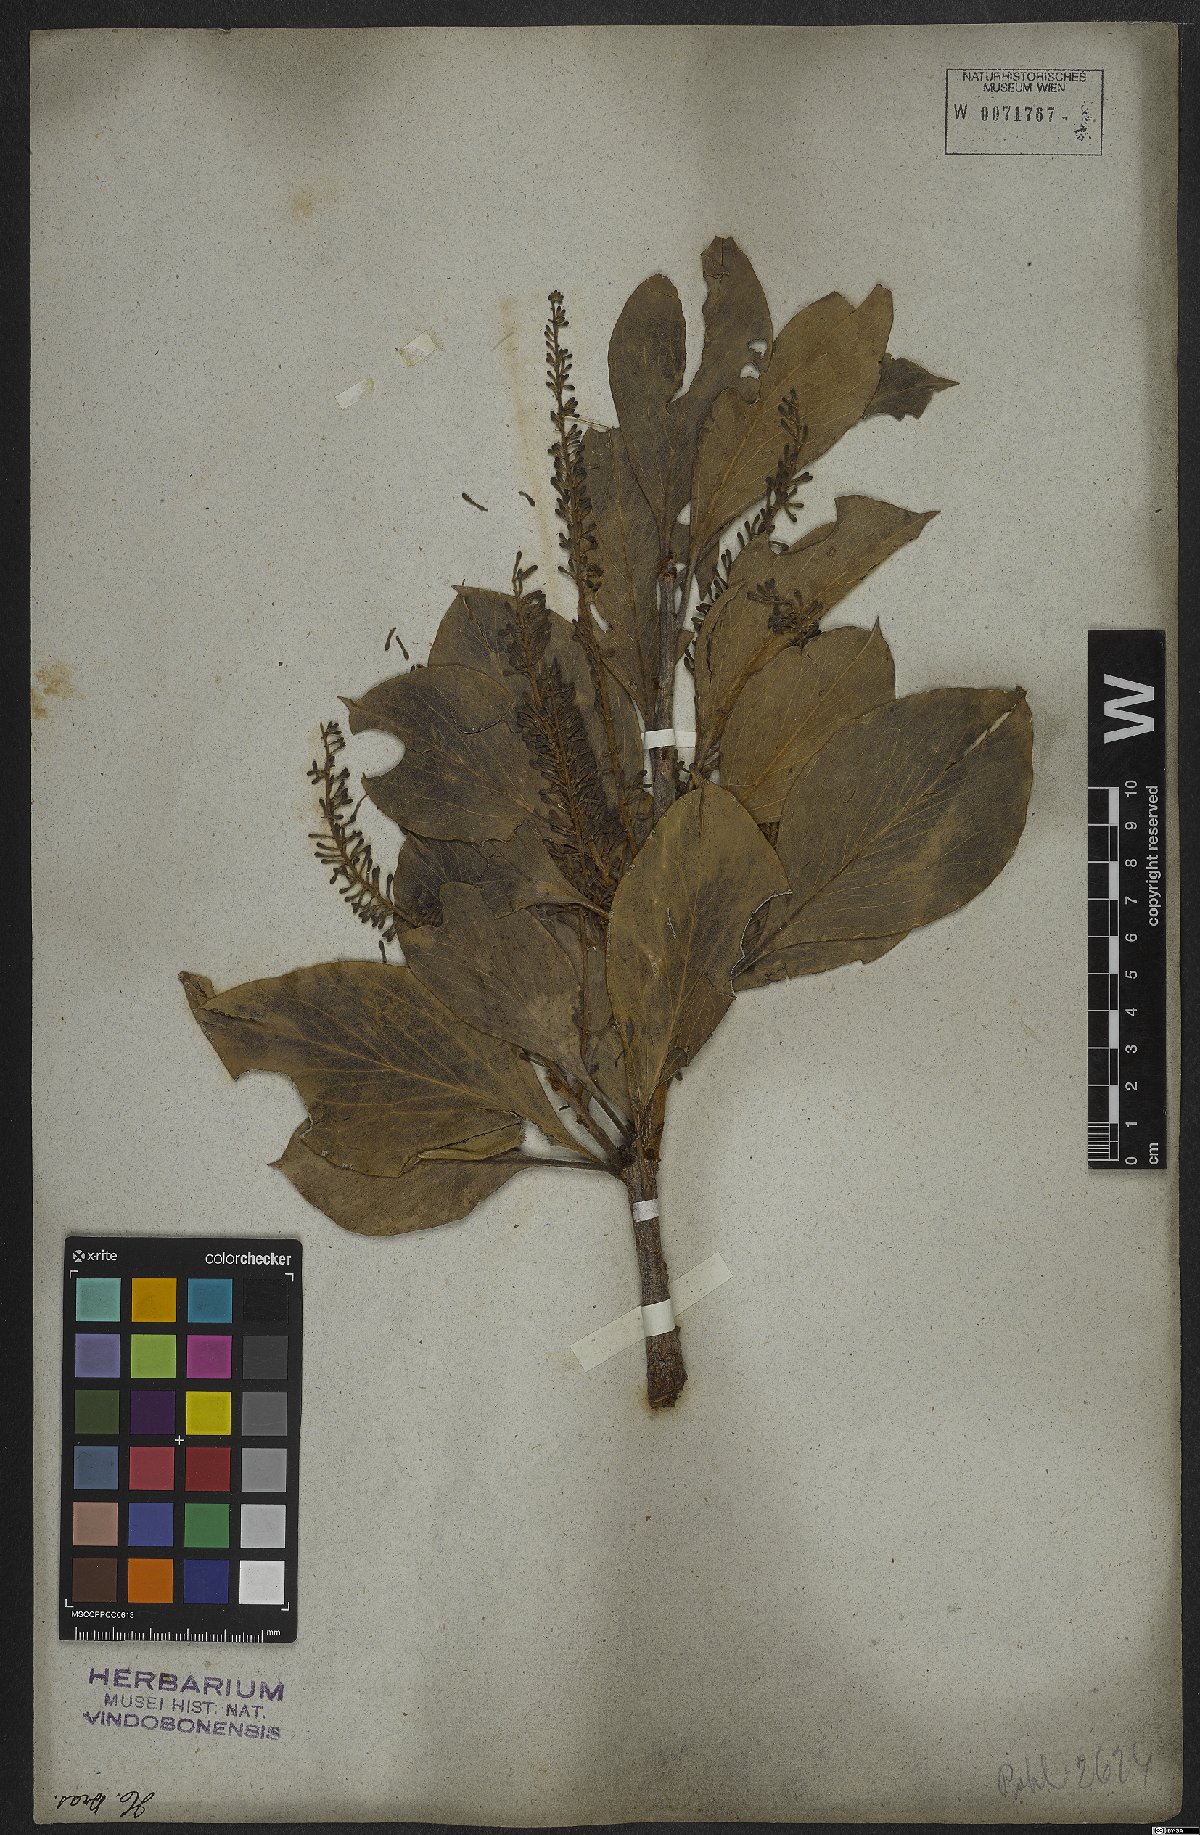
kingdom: Plantae
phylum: Tracheophyta
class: Magnoliopsida
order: Proteales
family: Proteaceae
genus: Roupala
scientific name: Roupala montana
